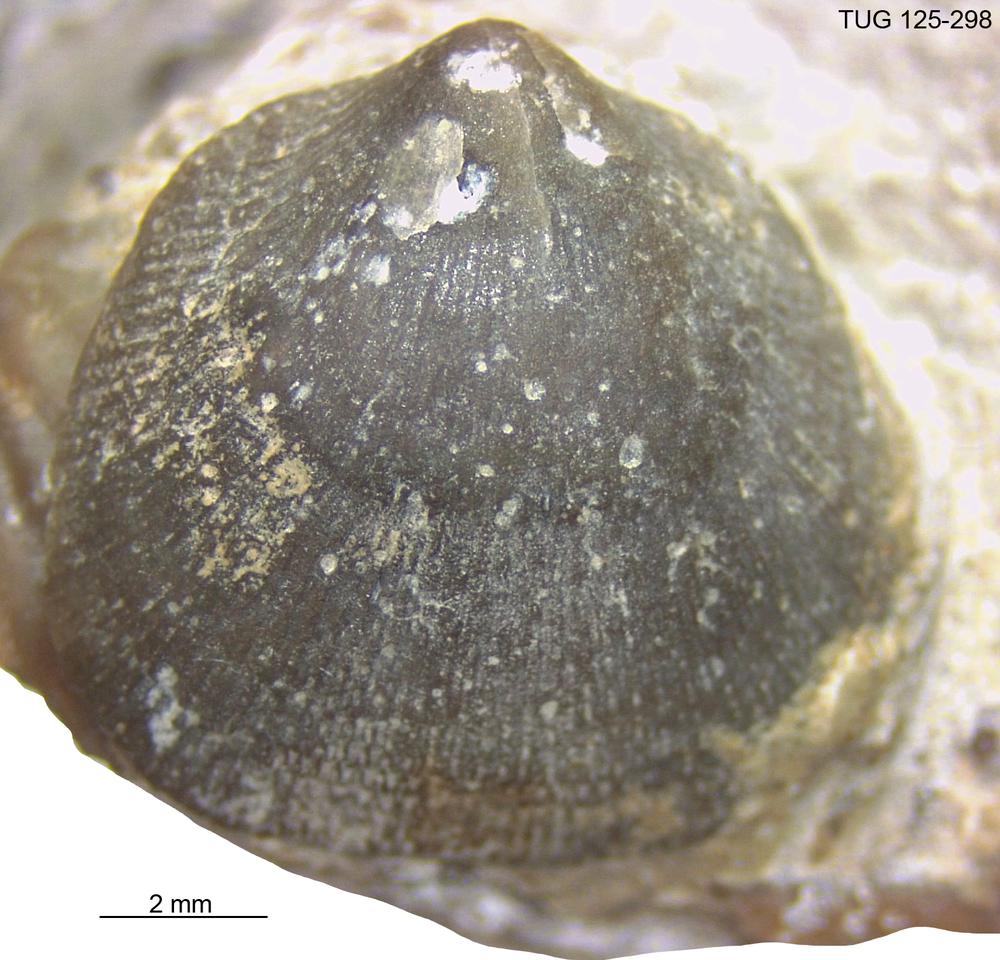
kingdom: Animalia
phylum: Brachiopoda
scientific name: Brachiopoda
